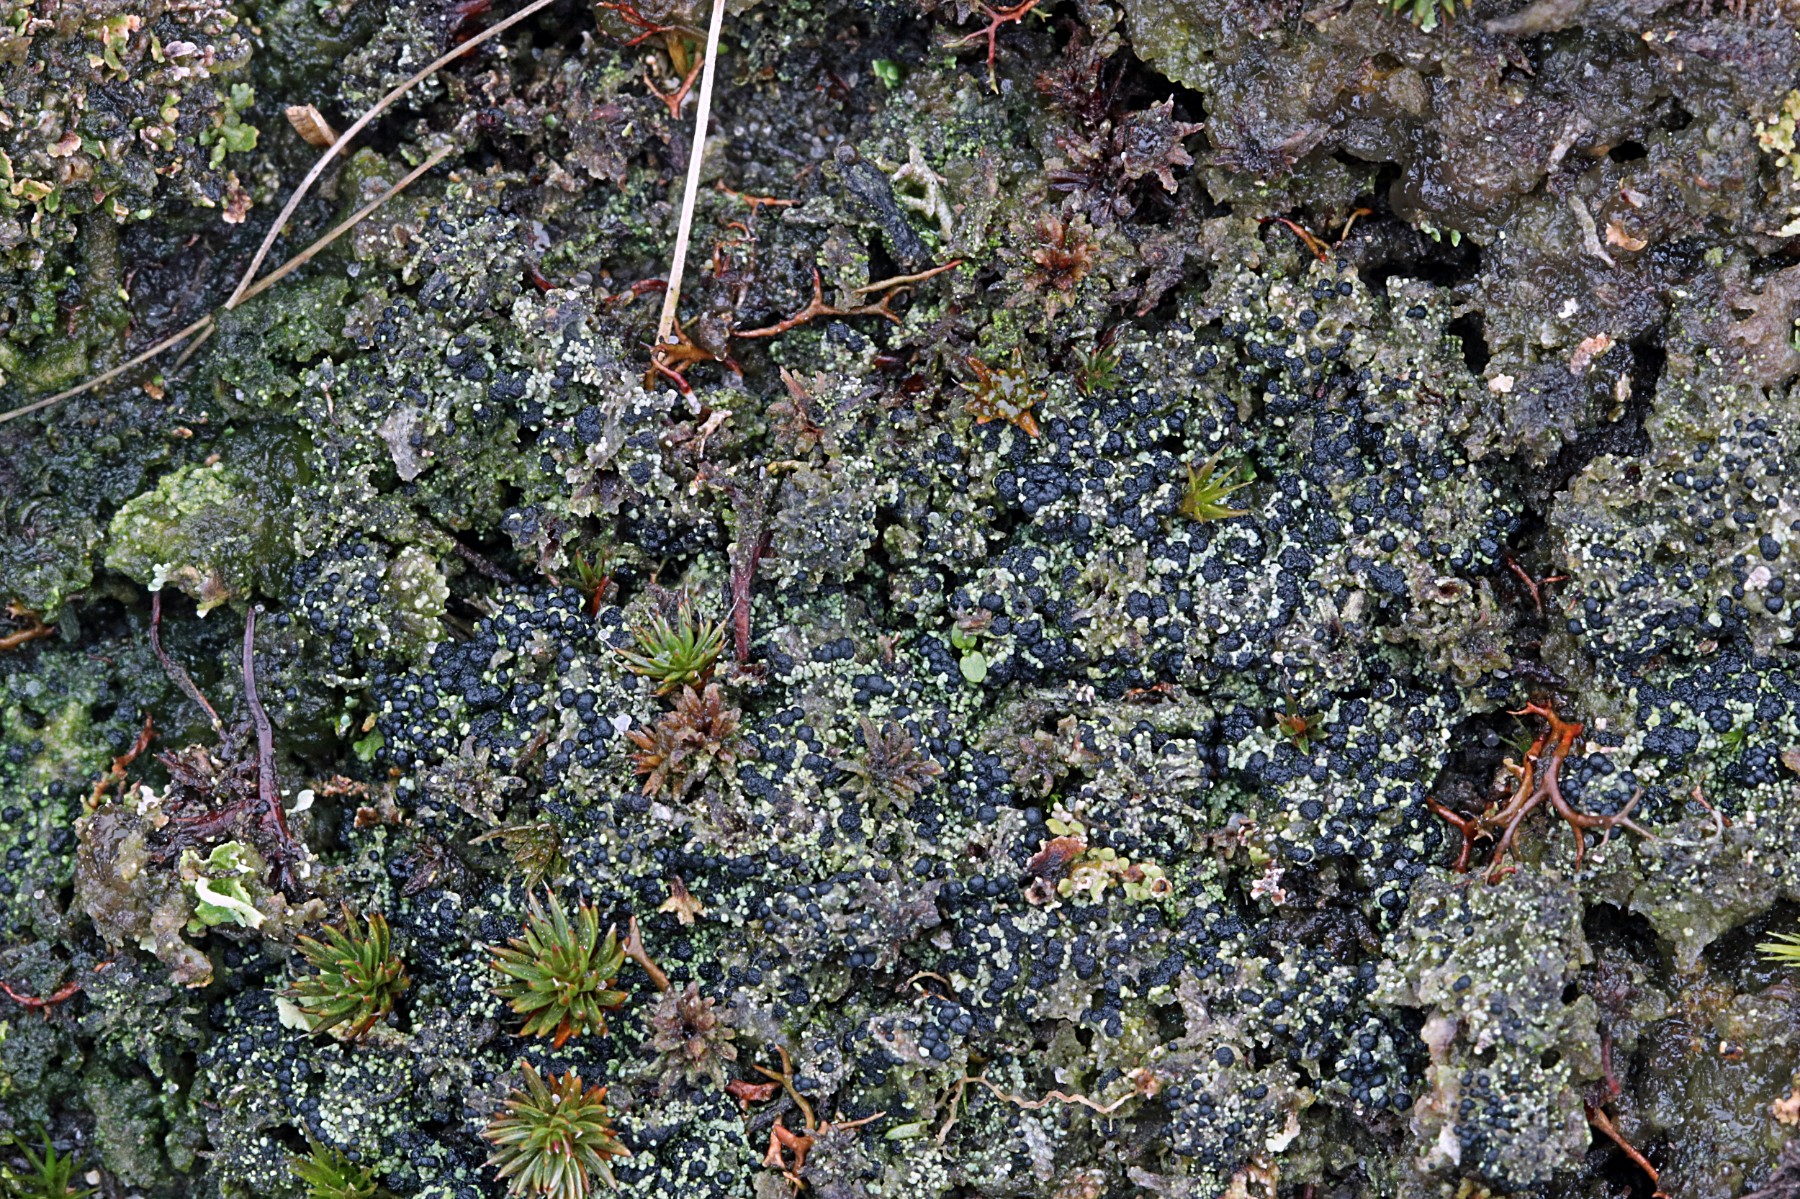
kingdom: Fungi
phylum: Ascomycota
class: Lecanoromycetes
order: Lecanorales
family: Byssolomataceae
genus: Micarea
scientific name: Micarea lignaria
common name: tørve-knaplav
